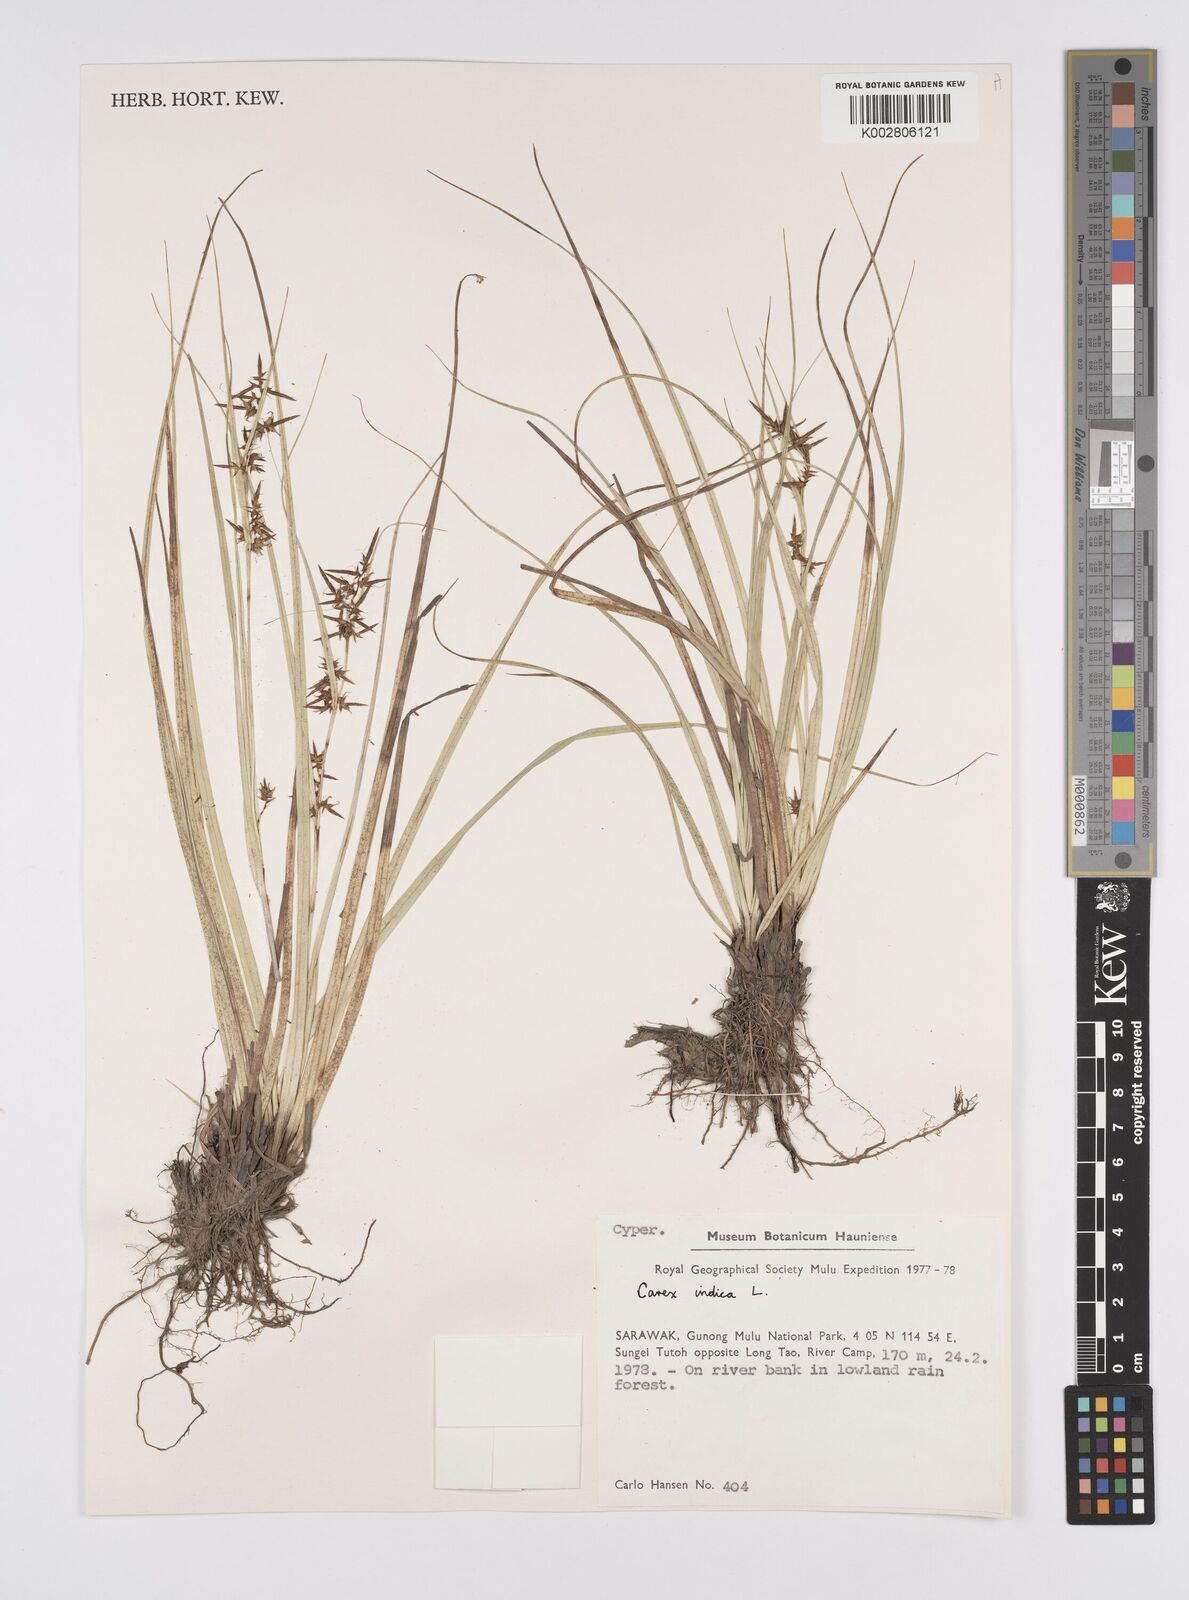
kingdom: Plantae
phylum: Tracheophyta
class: Liliopsida
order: Poales
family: Cyperaceae
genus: Carex
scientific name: Carex indica
